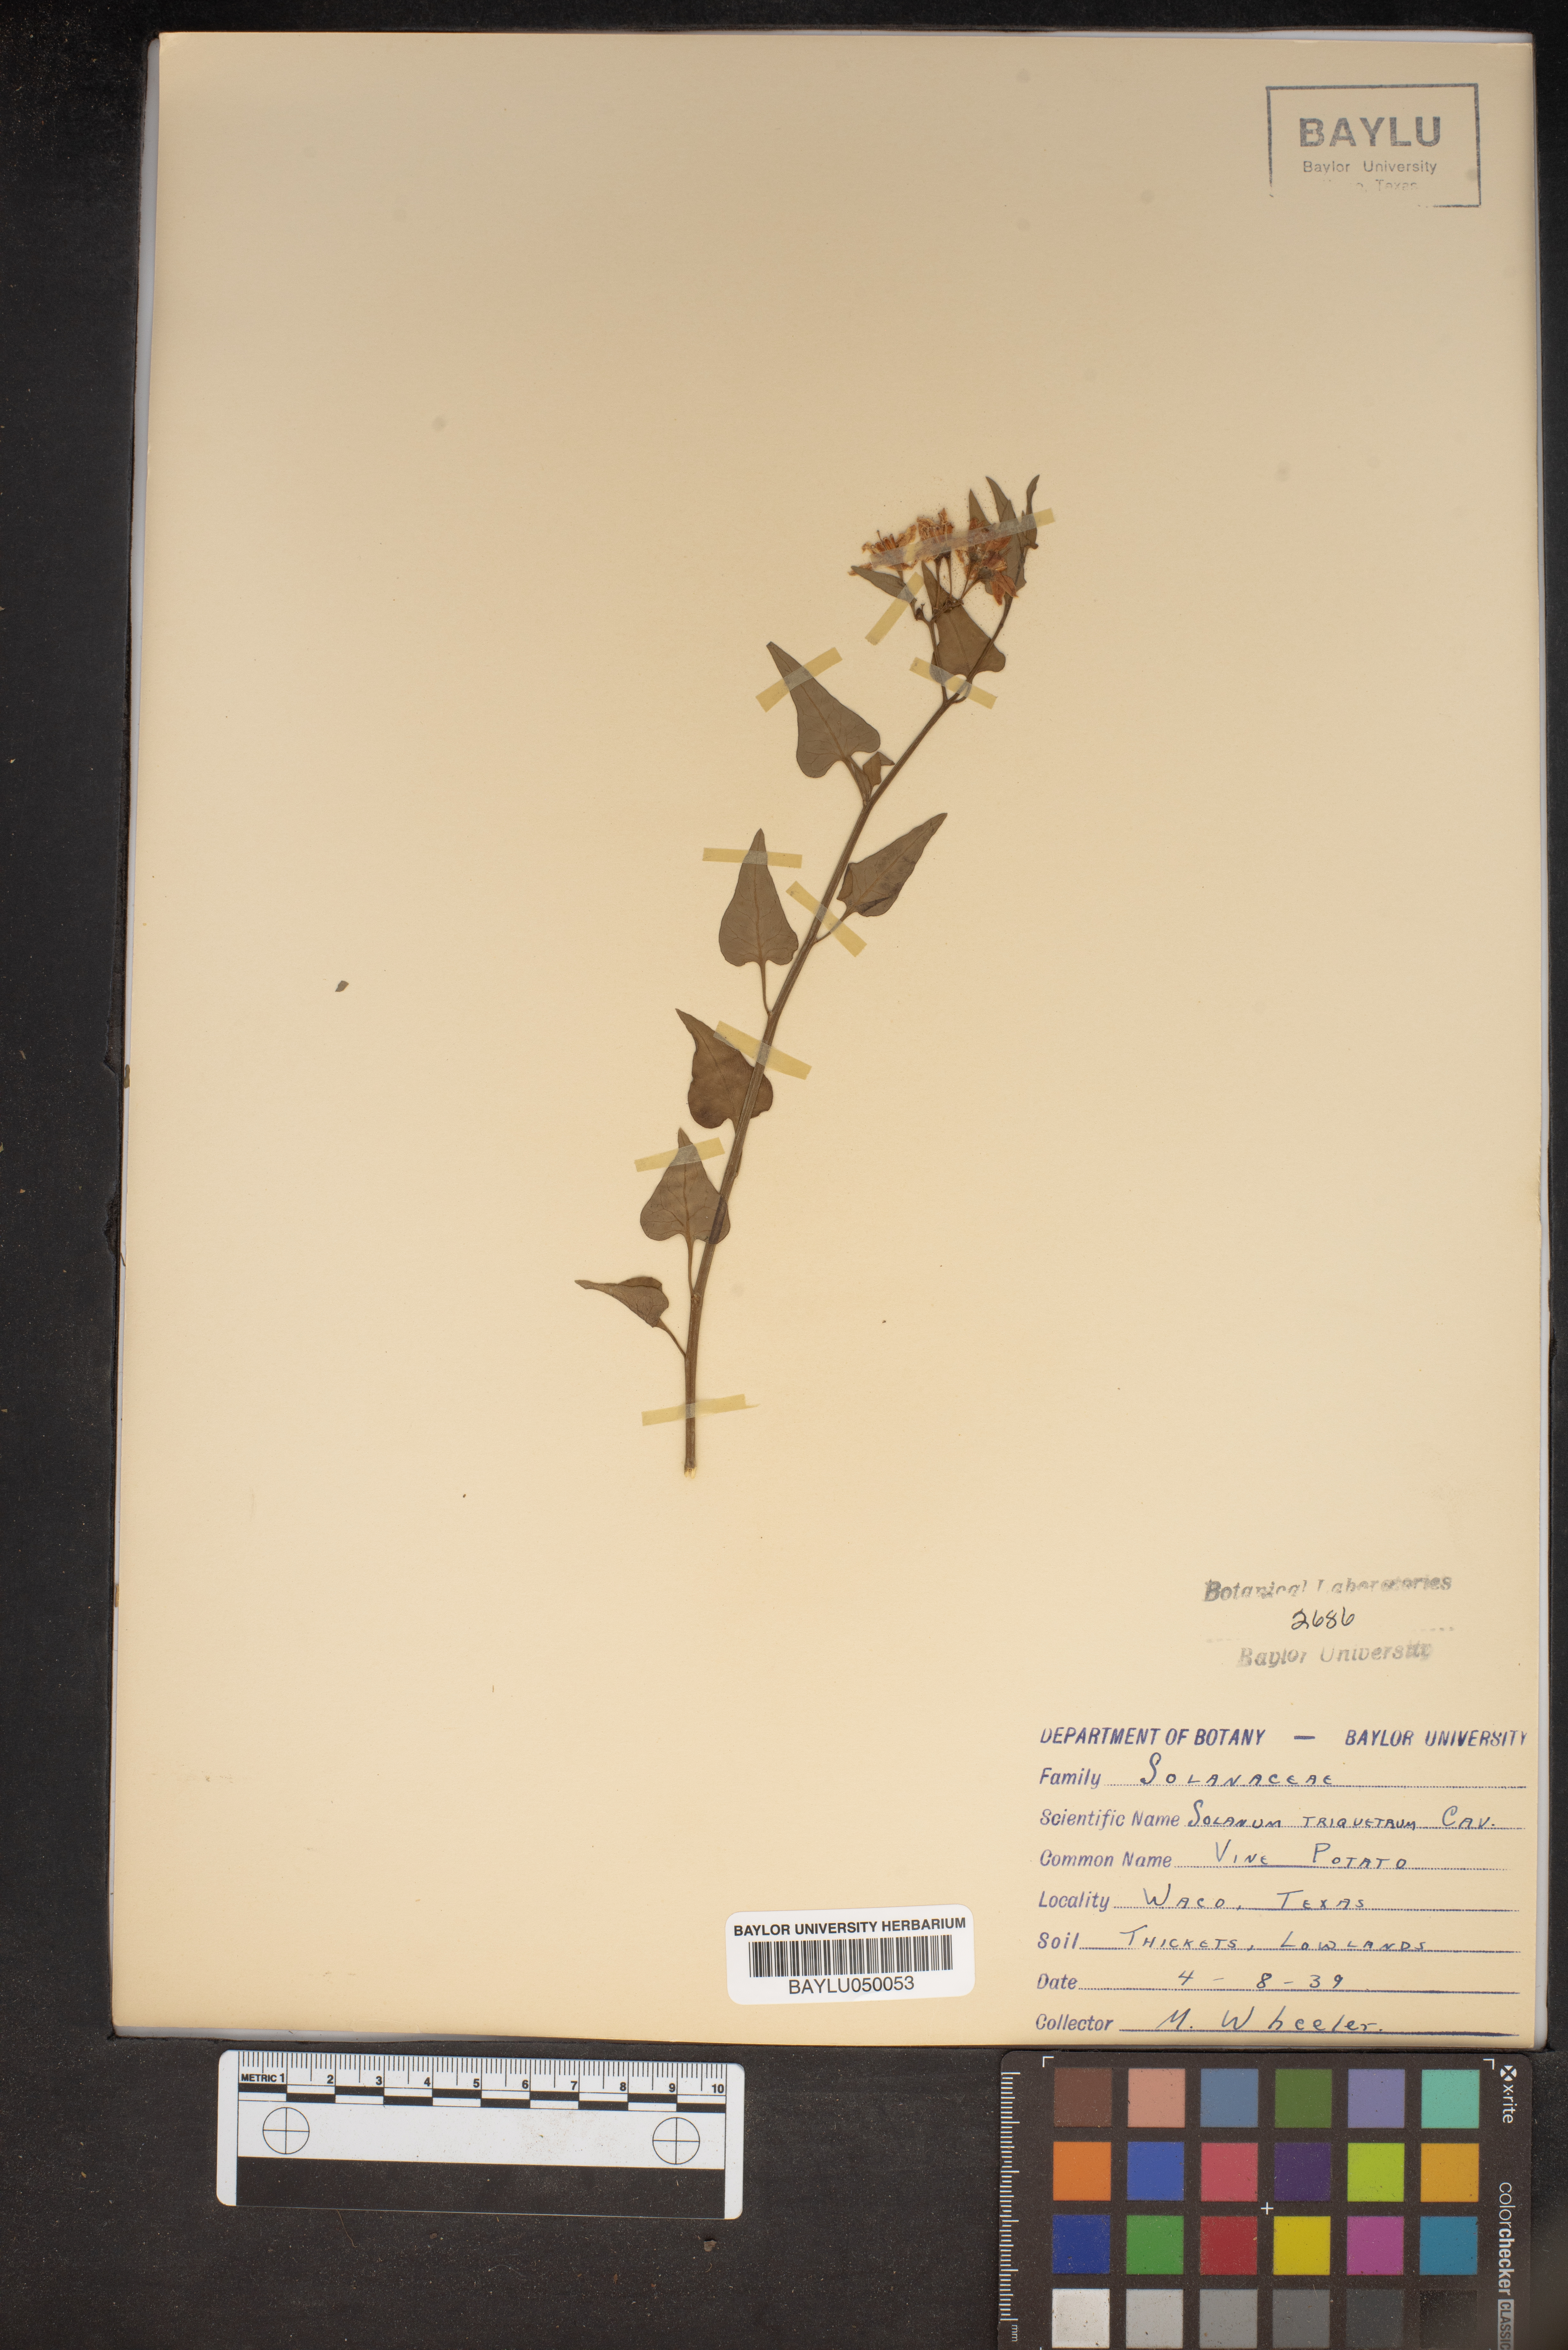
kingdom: Plantae
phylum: Tracheophyta
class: Magnoliopsida
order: Solanales
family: Solanaceae
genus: Solanum
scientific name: Solanum triquetrum
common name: Texas nightshade
